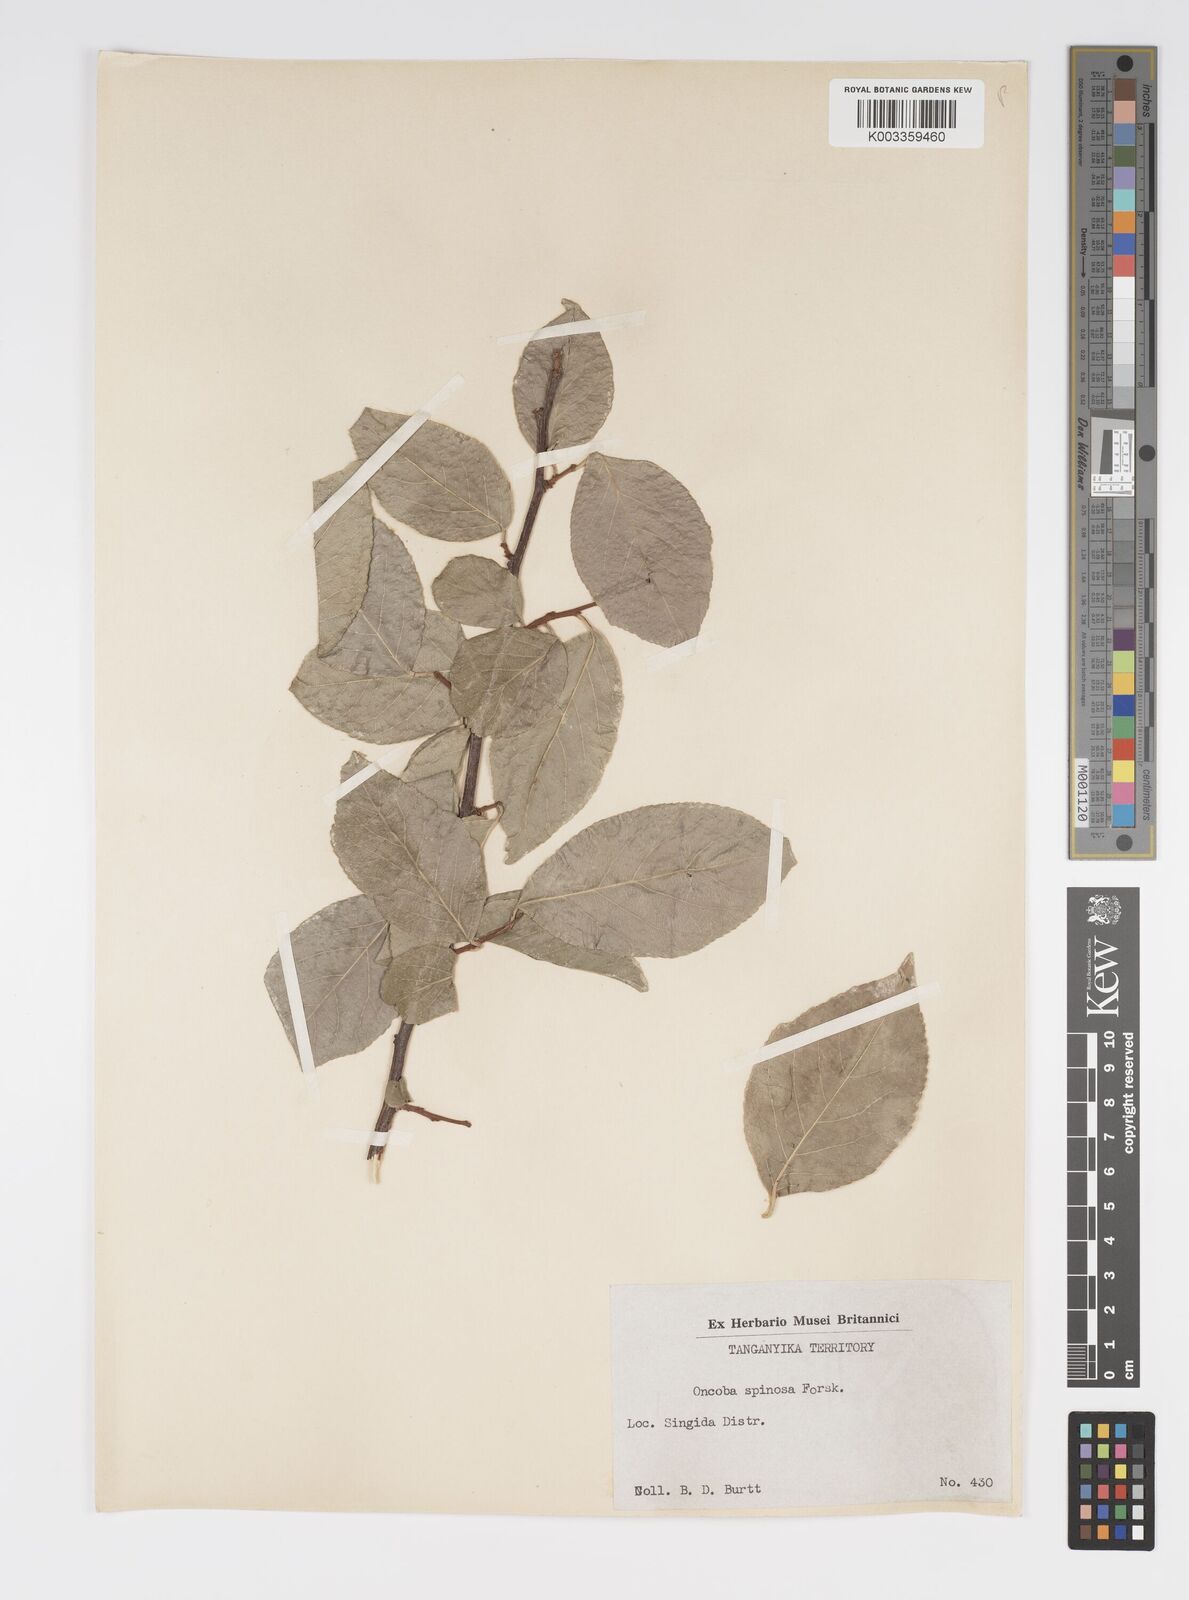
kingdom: Plantae
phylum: Tracheophyta
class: Magnoliopsida
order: Malpighiales
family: Salicaceae
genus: Oncoba
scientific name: Oncoba spinosa
